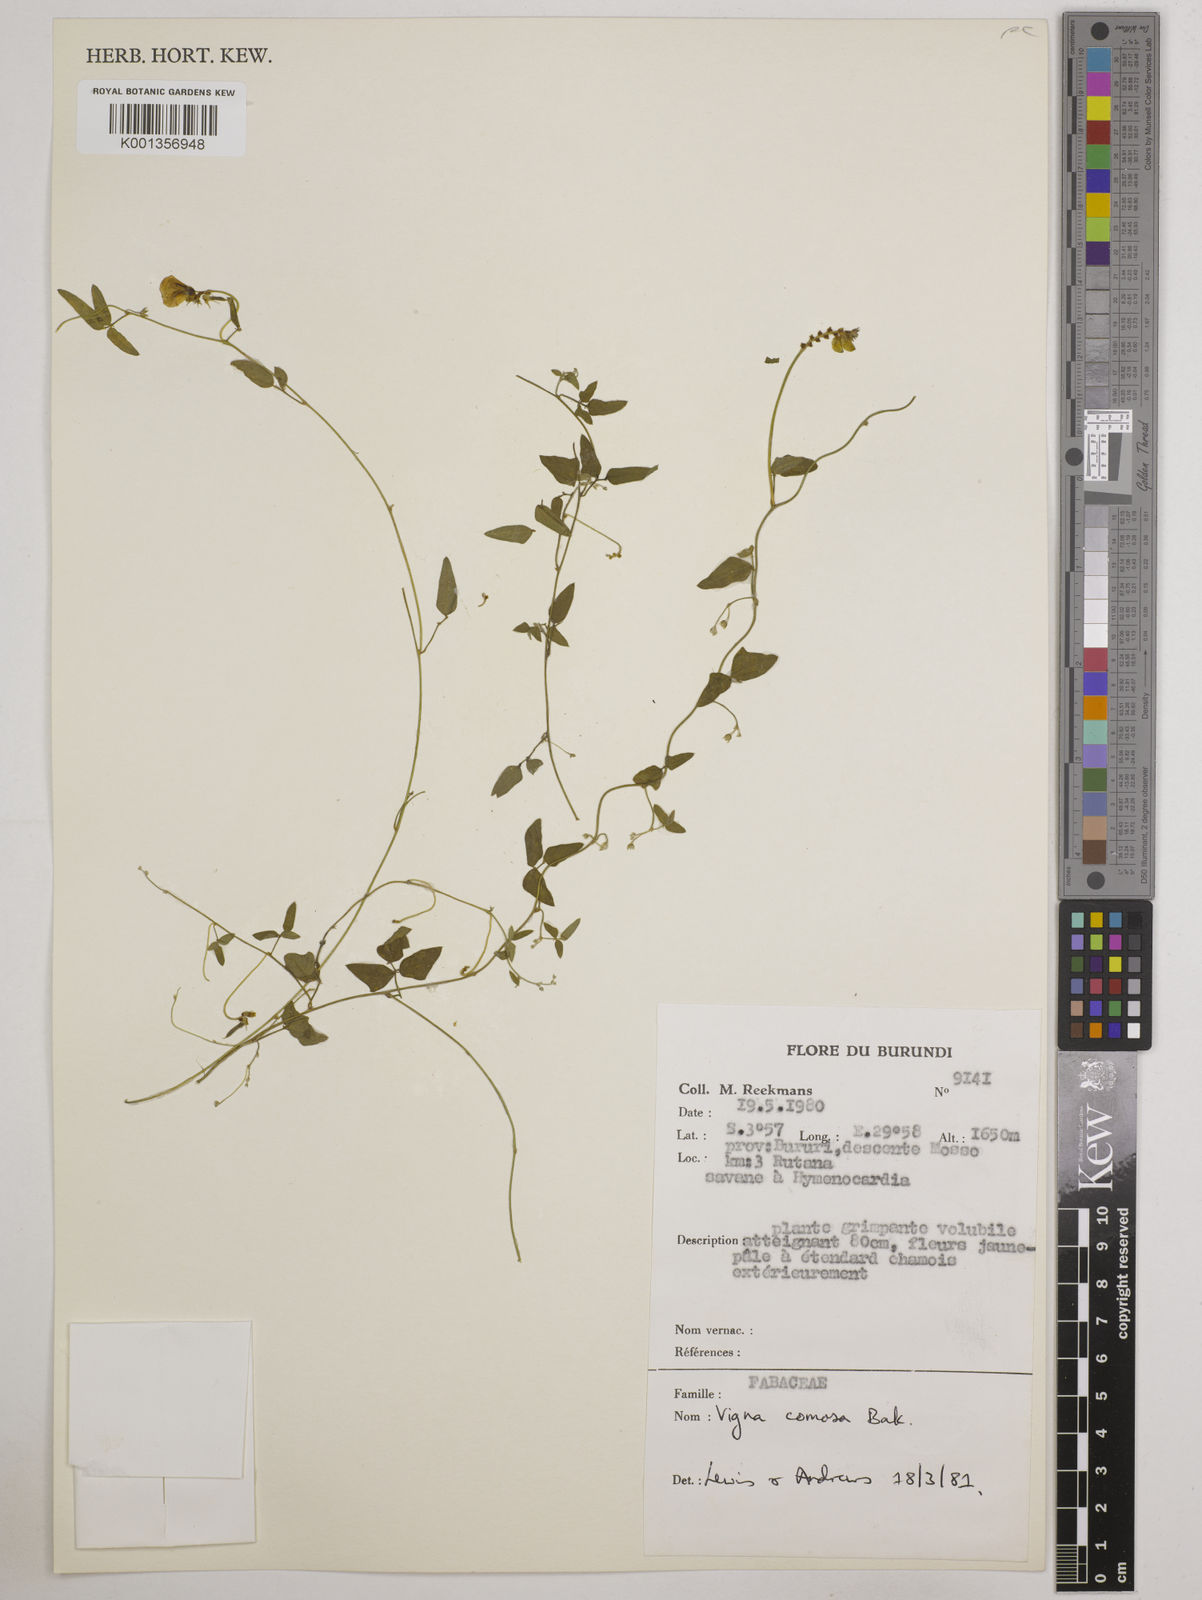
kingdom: Plantae
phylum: Tracheophyta
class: Magnoliopsida
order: Fabales
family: Fabaceae
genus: Vigna
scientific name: Vigna comosa
